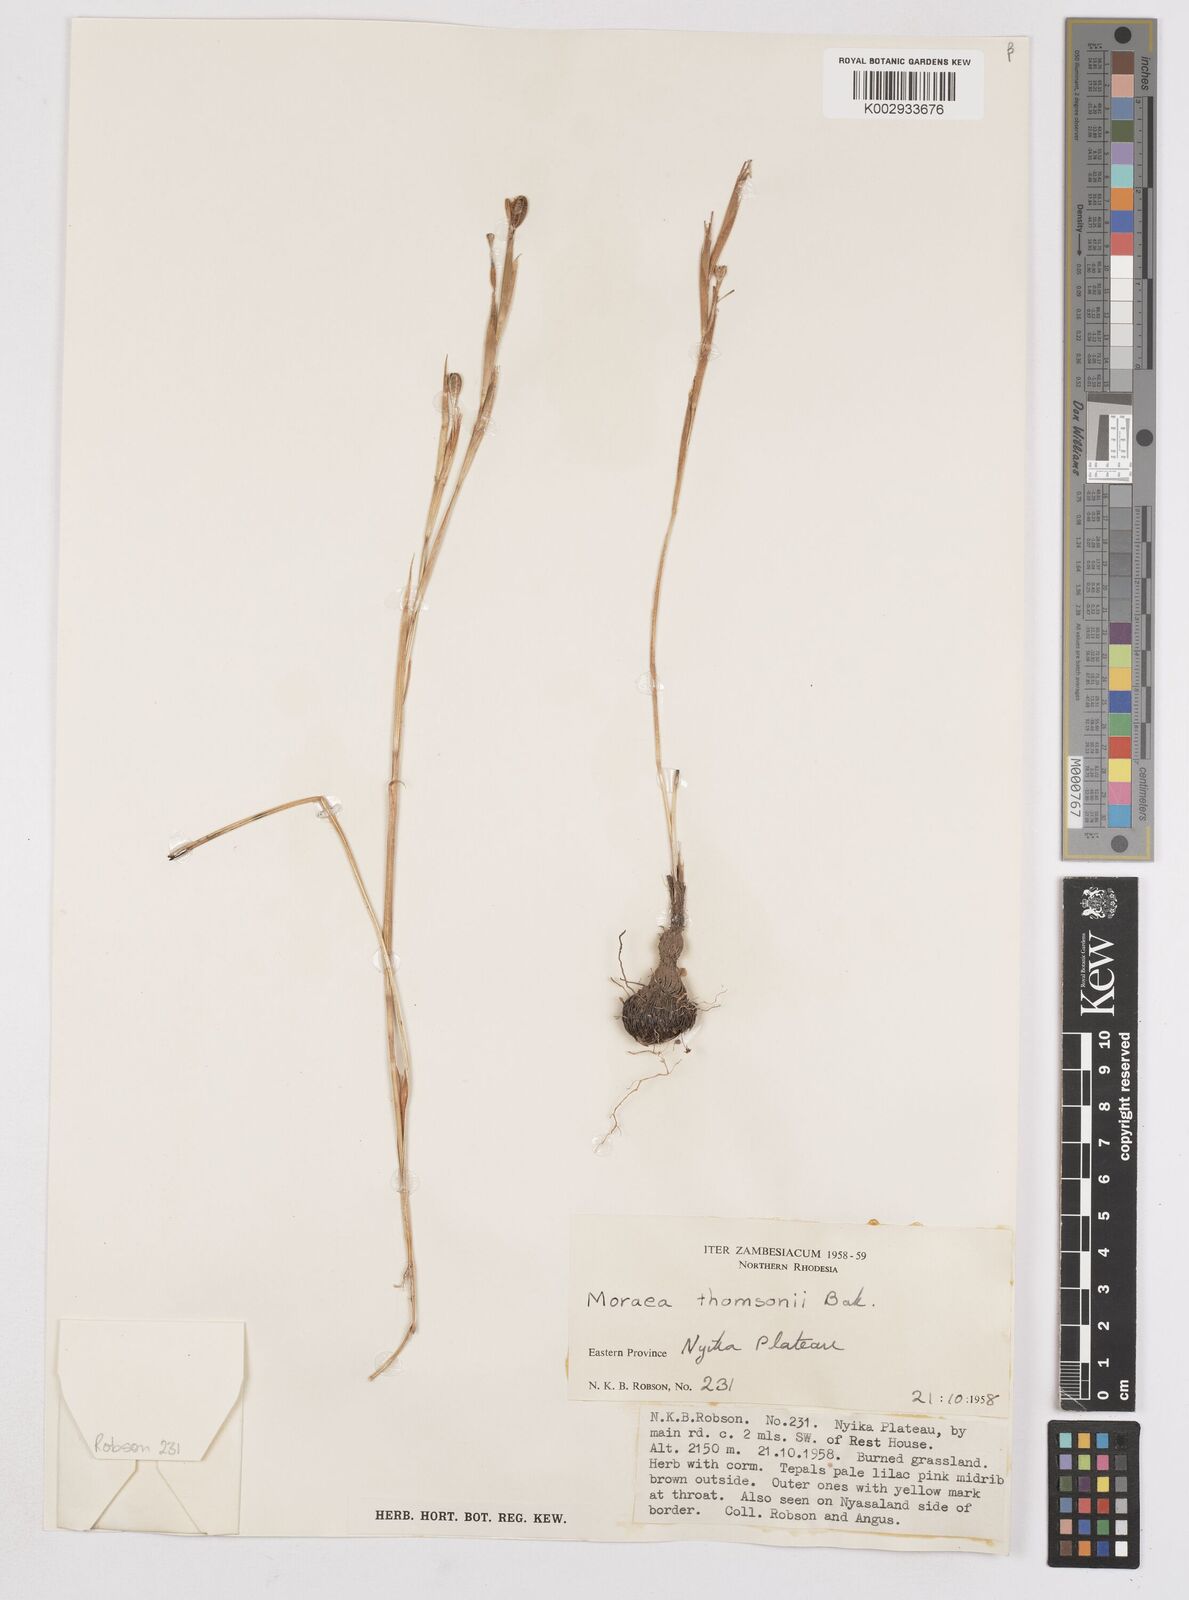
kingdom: Plantae
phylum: Tracheophyta
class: Liliopsida
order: Asparagales
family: Iridaceae
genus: Moraea
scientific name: Moraea thomsonii
